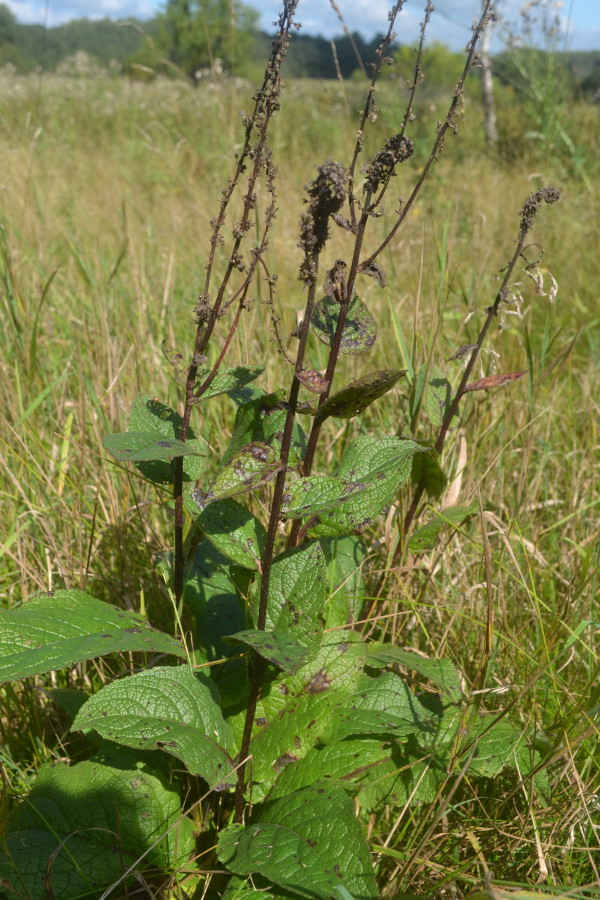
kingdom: Plantae
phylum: Tracheophyta
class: Magnoliopsida
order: Lamiales
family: Scrophulariaceae
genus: Verbascum
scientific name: Verbascum nigrum
